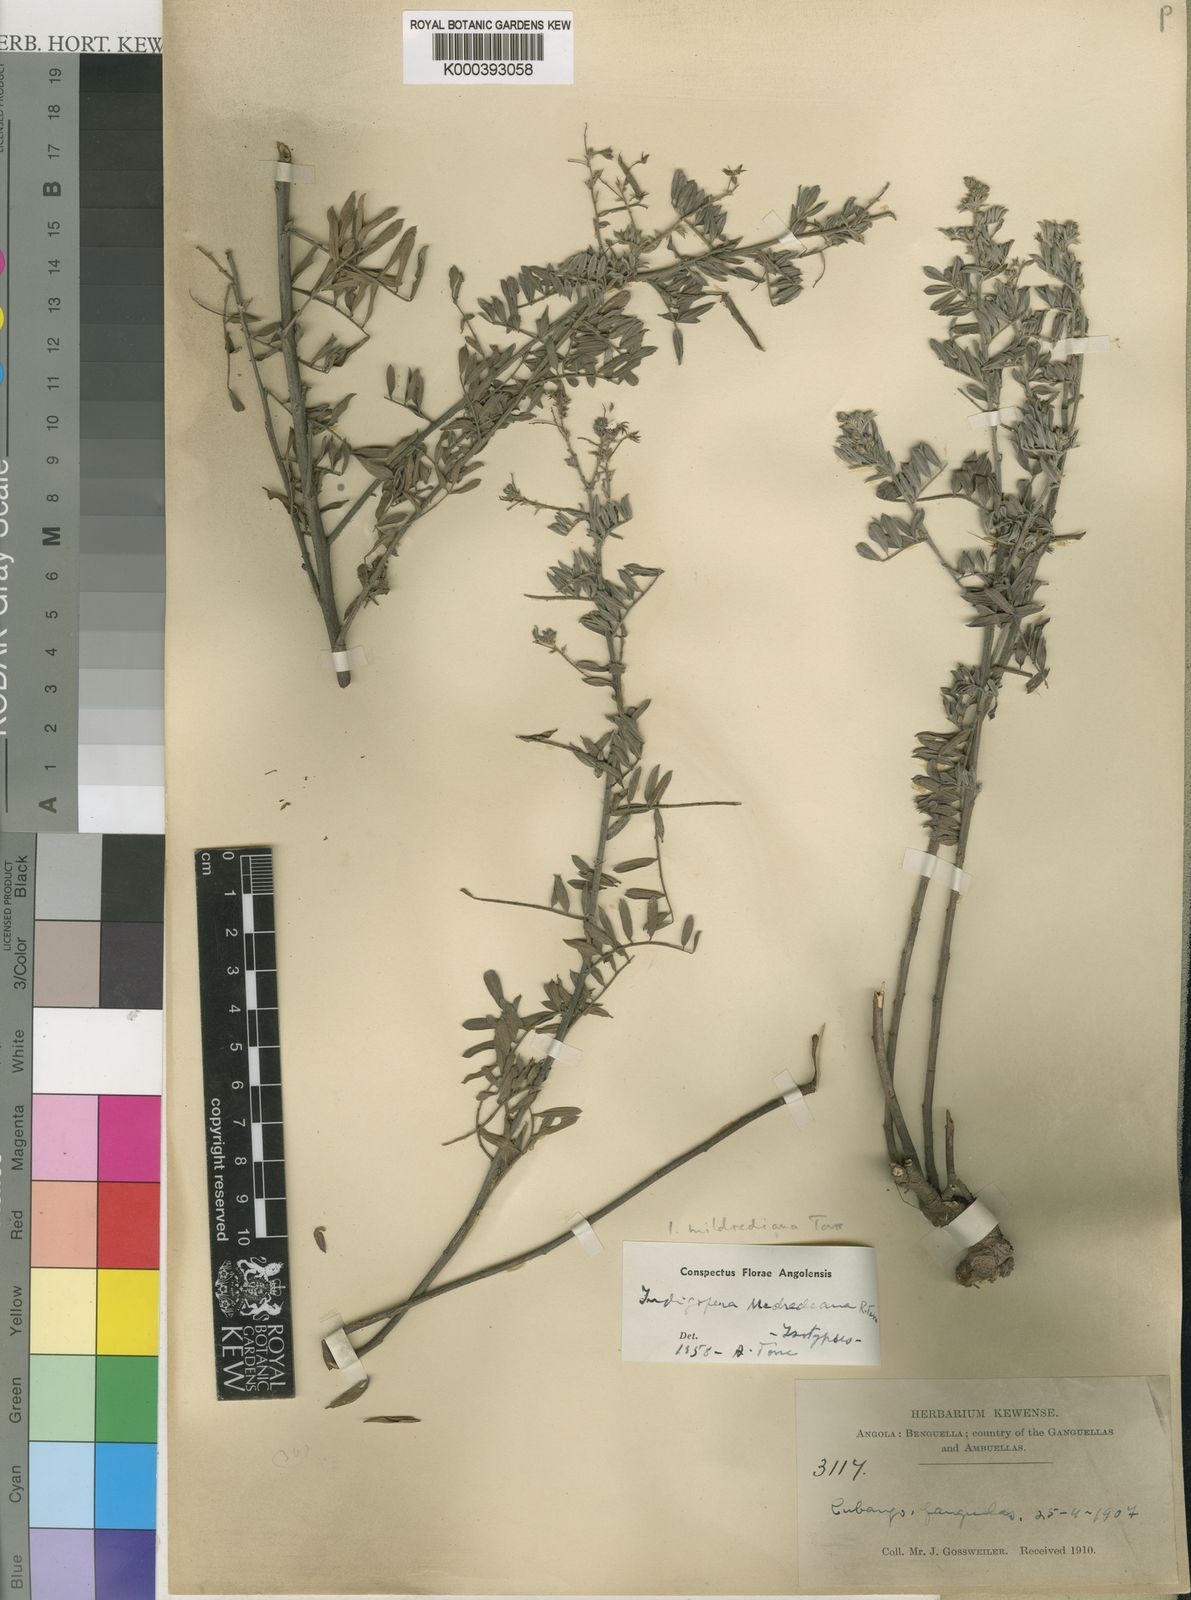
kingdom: Plantae
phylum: Tracheophyta
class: Magnoliopsida
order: Fabales
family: Fabaceae
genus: Indigofera
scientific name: Indigofera mildrediana
